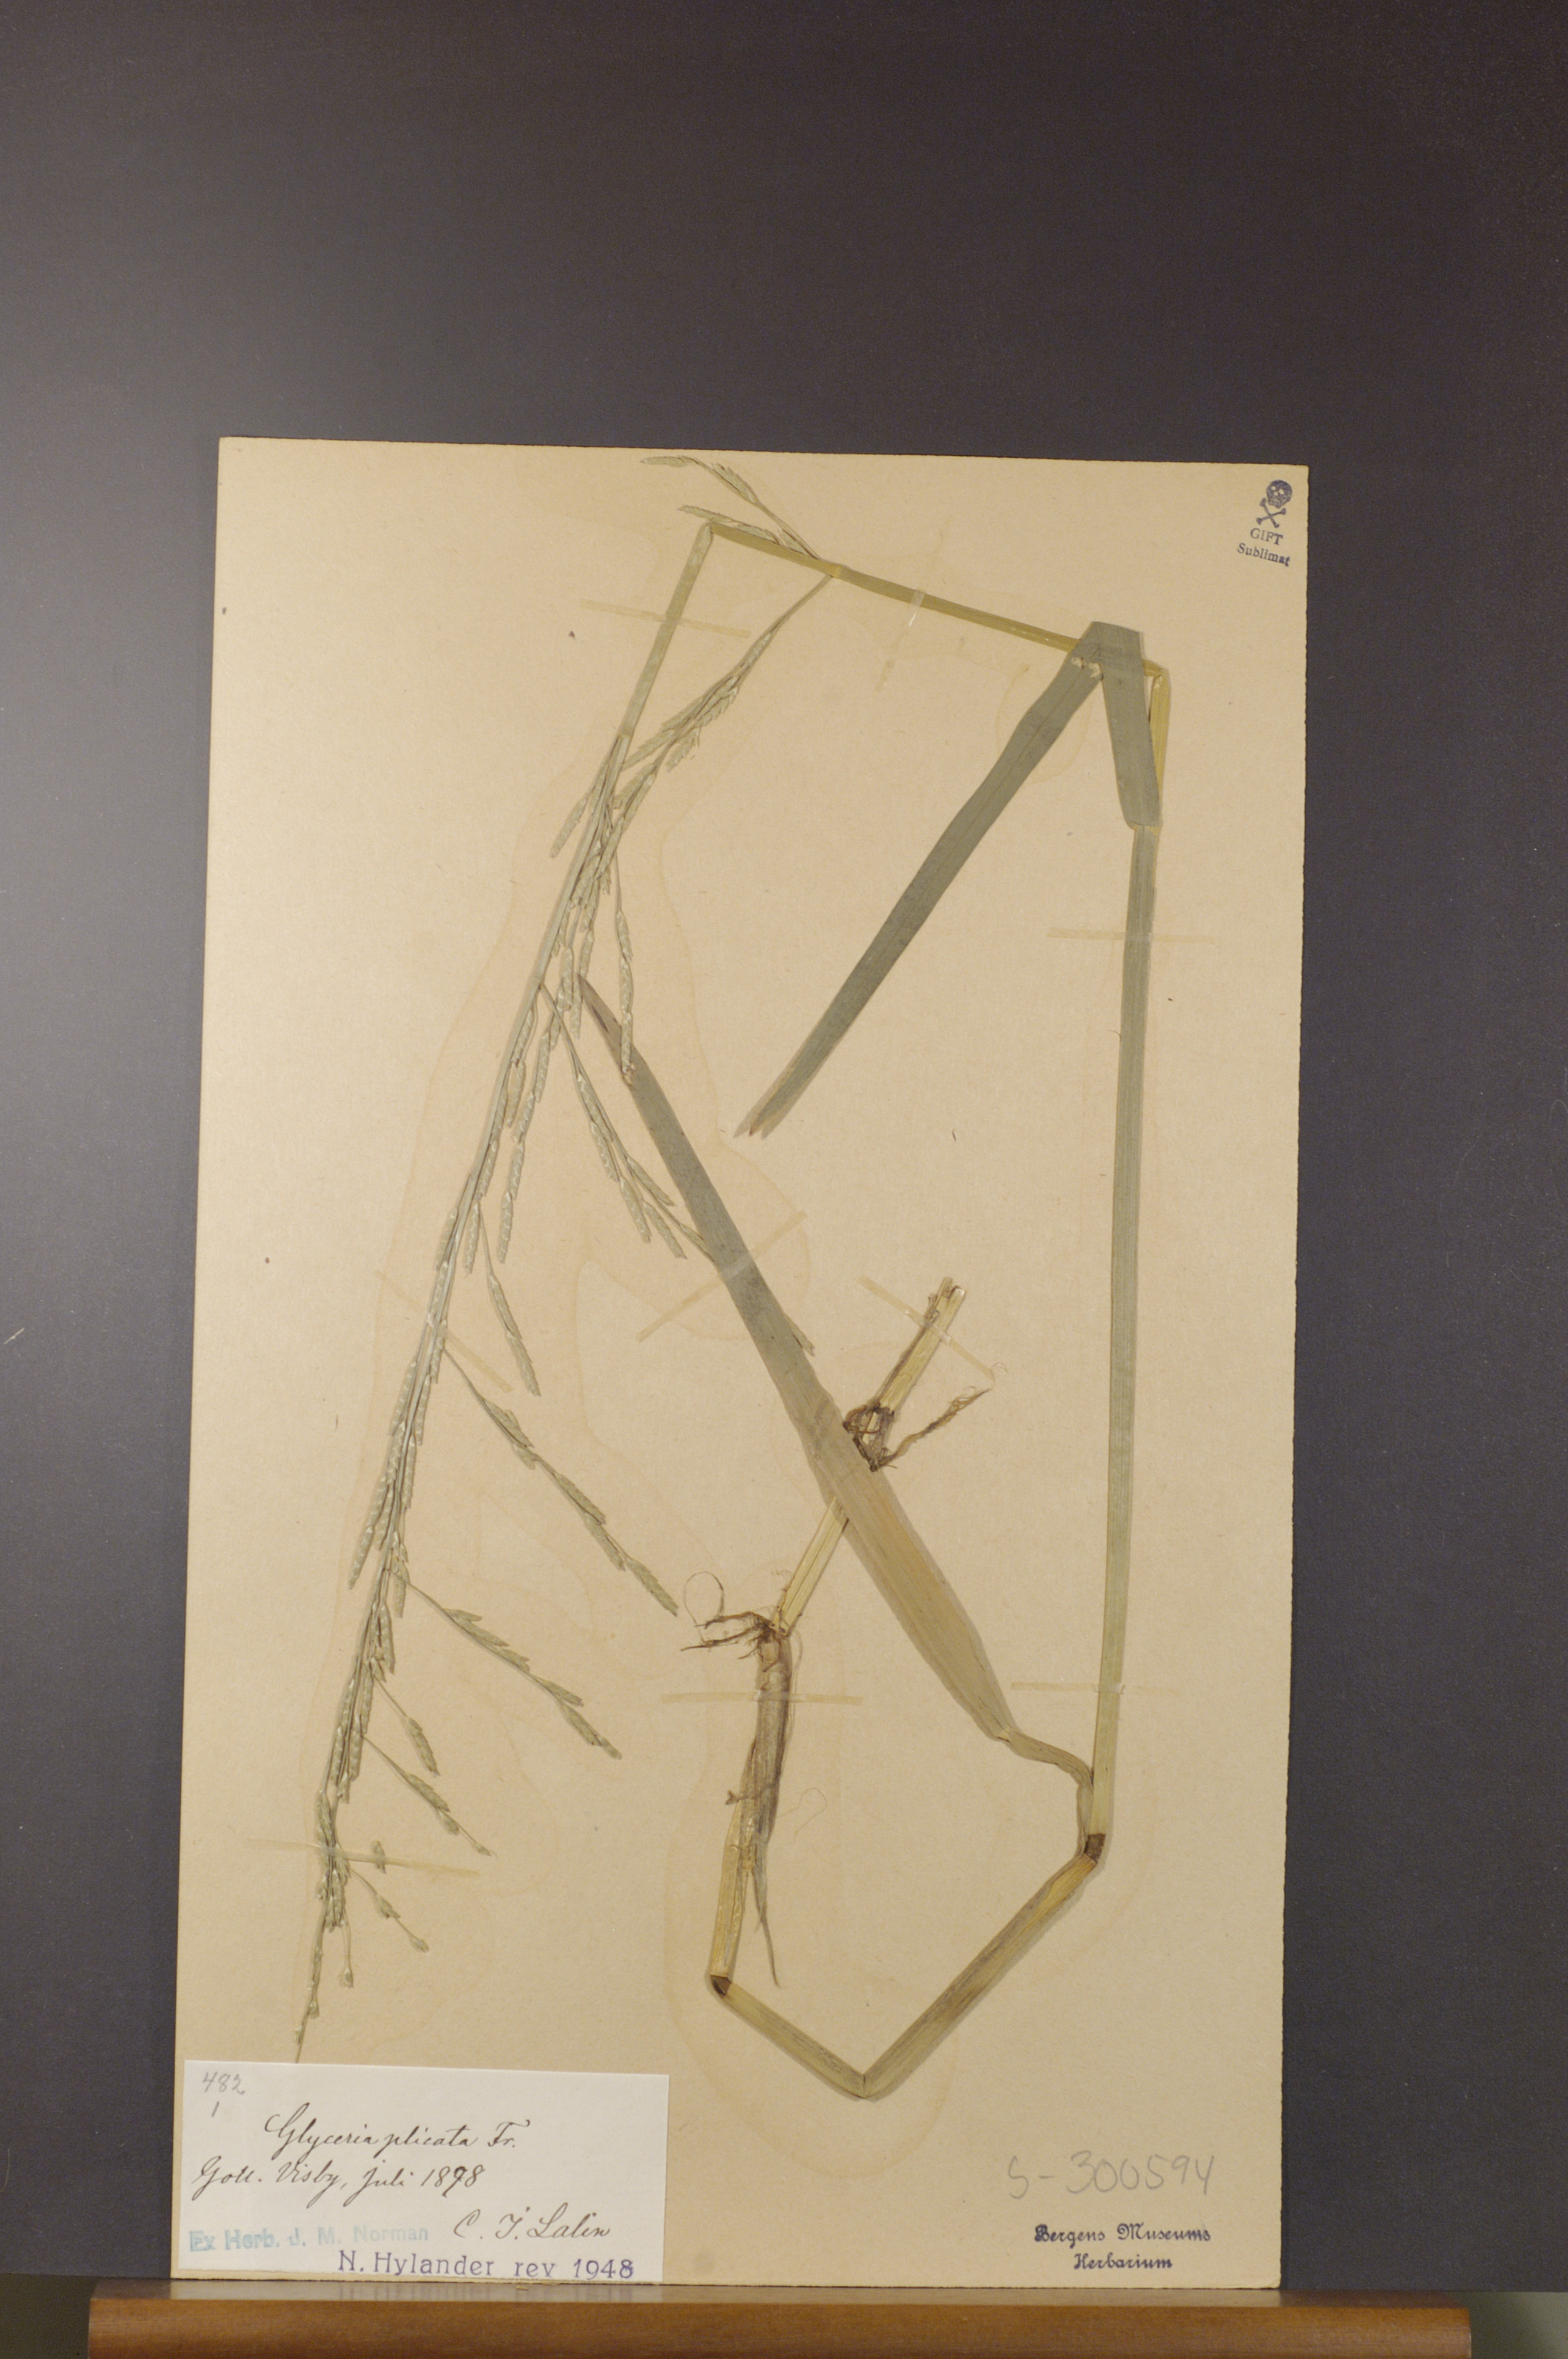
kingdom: Plantae
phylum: Tracheophyta
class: Liliopsida
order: Poales
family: Poaceae
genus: Glyceria
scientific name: Glyceria notata
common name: Plicate sweet-grass
